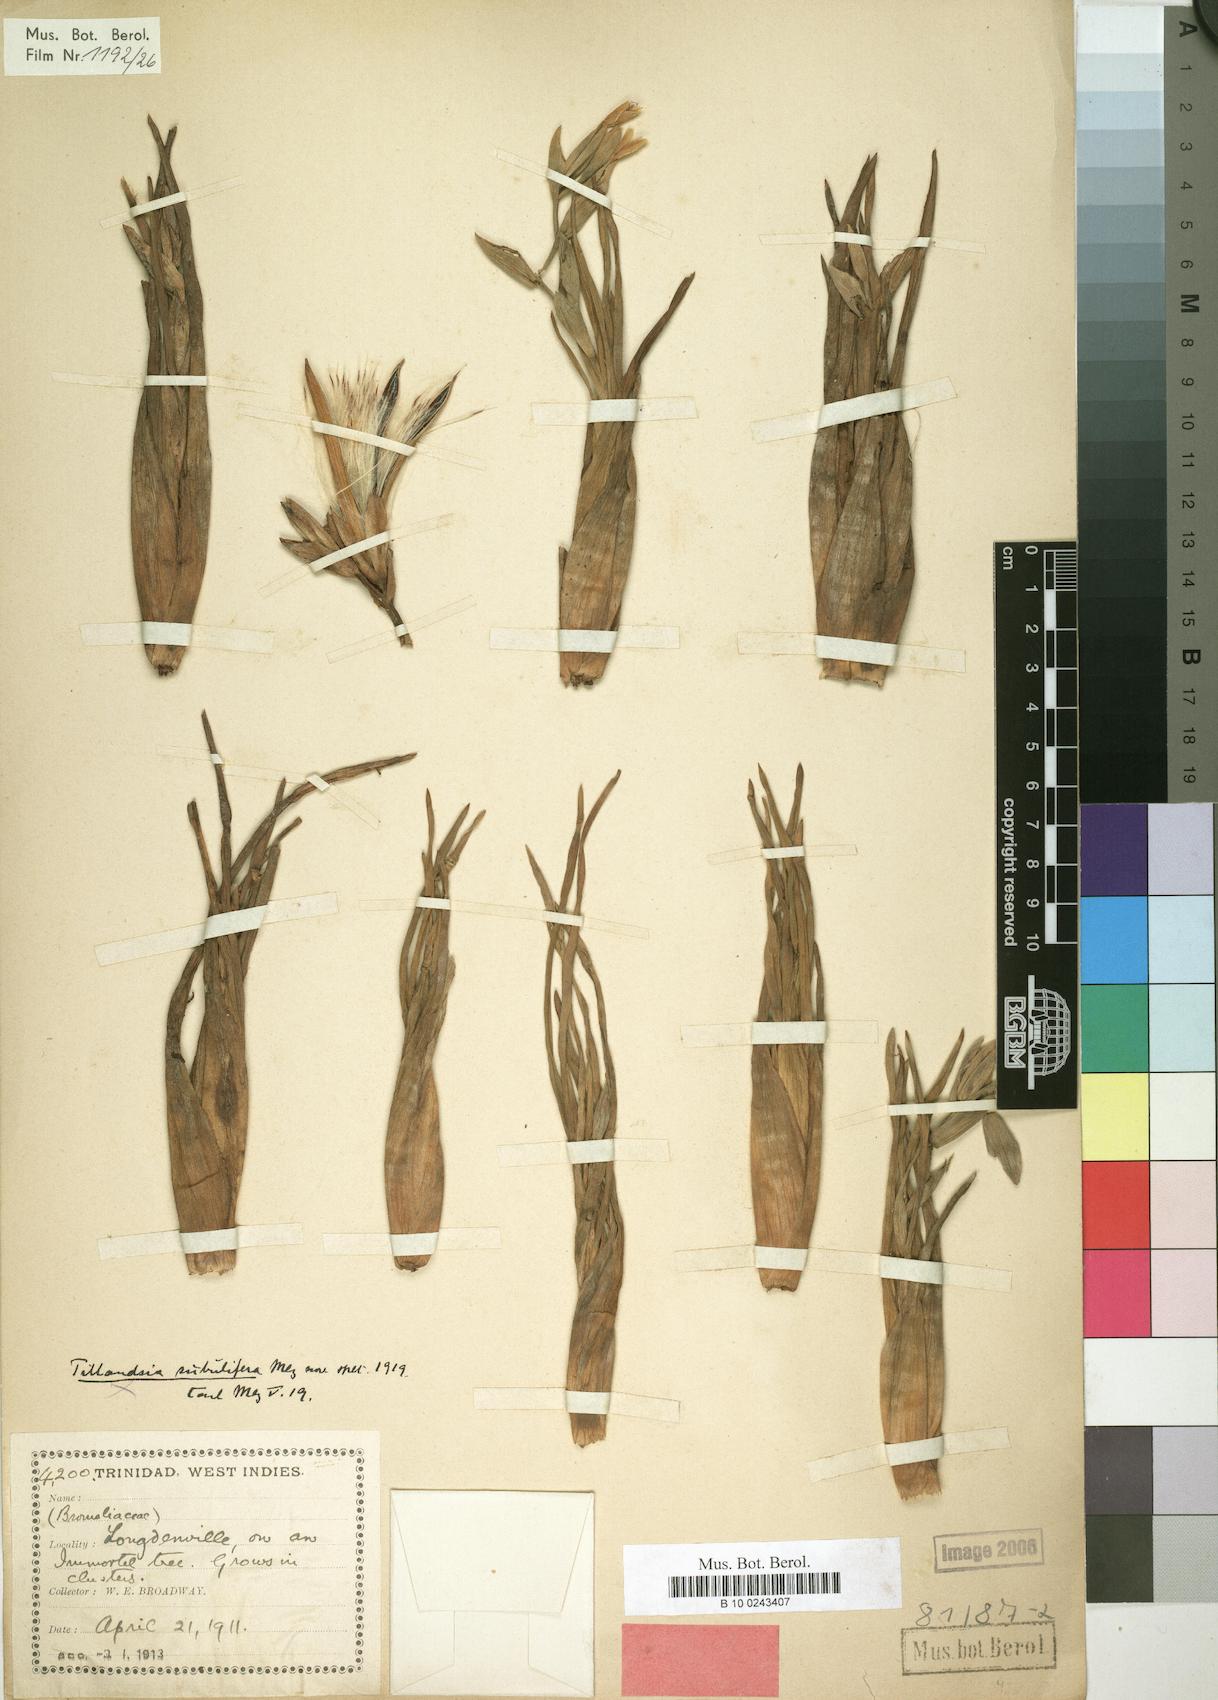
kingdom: Plantae
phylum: Tracheophyta
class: Liliopsida
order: Poales
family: Bromeliaceae
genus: Tillandsia
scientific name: Tillandsia subulifera
